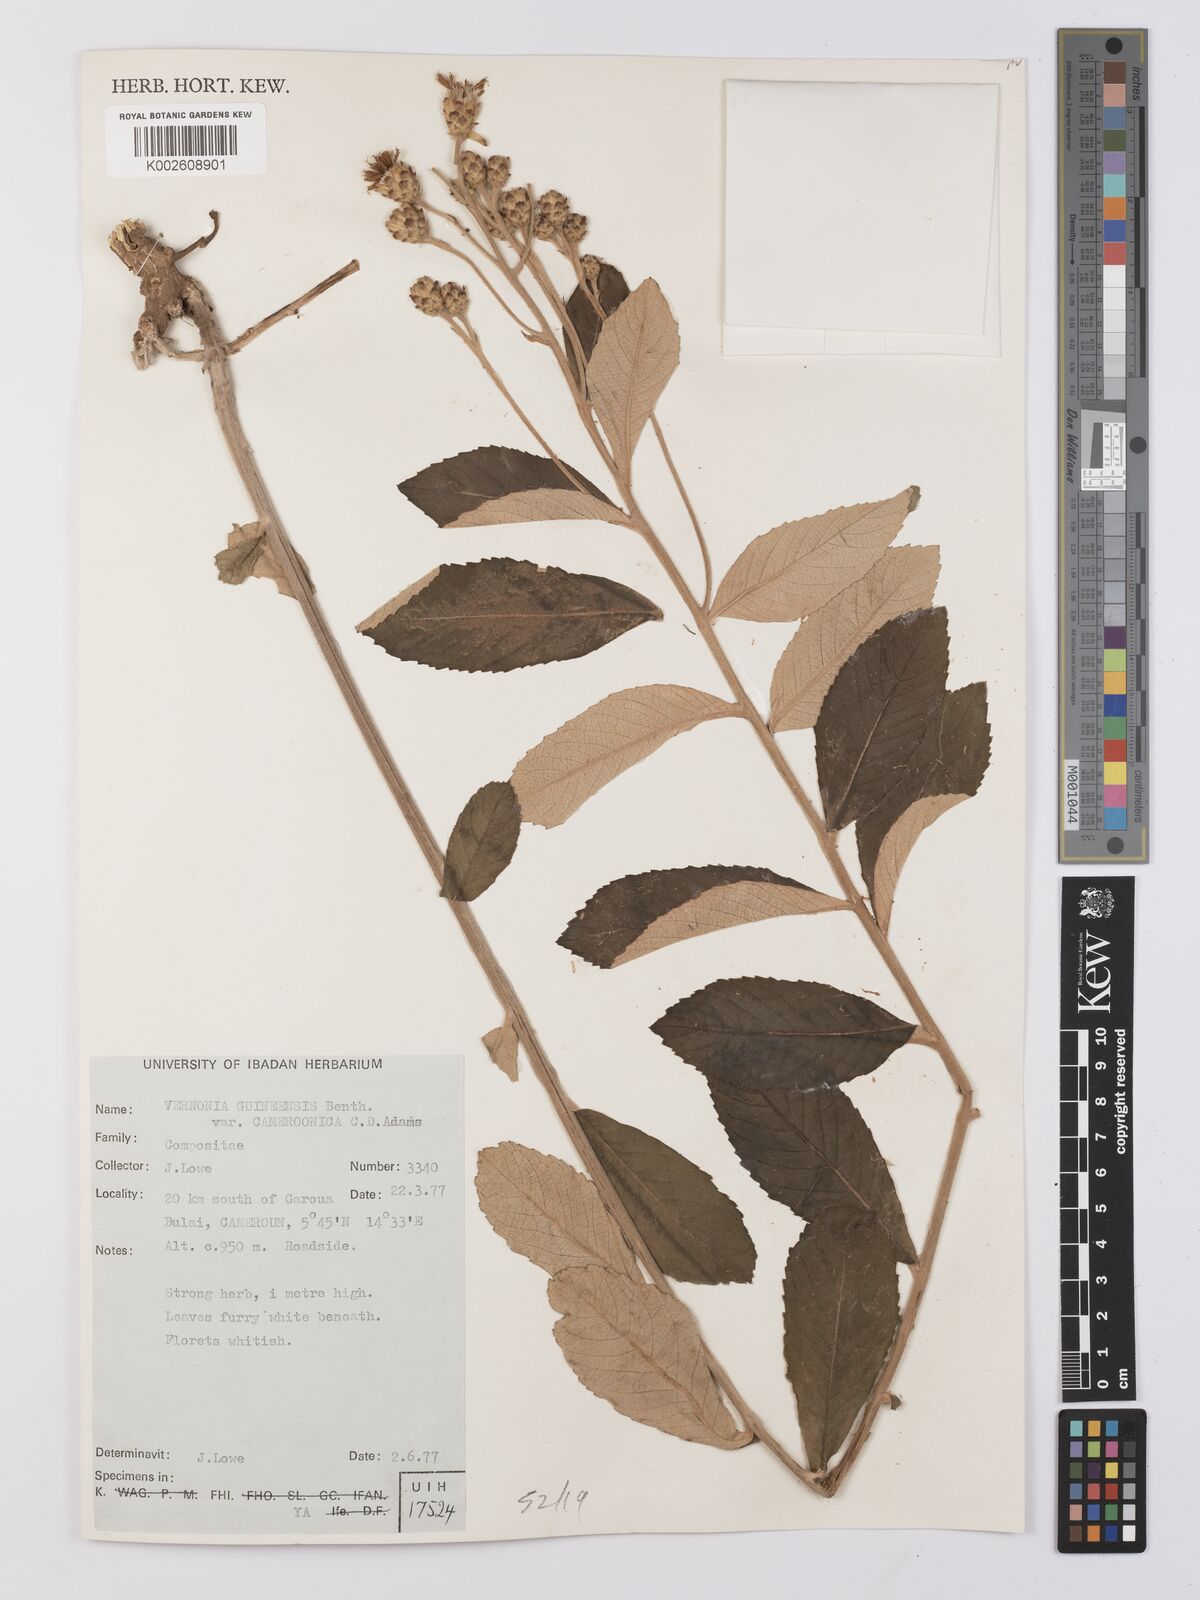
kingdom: Plantae
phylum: Tracheophyta
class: Magnoliopsida
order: Asterales
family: Asteraceae
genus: Baccharoides
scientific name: Baccharoides guineensis
